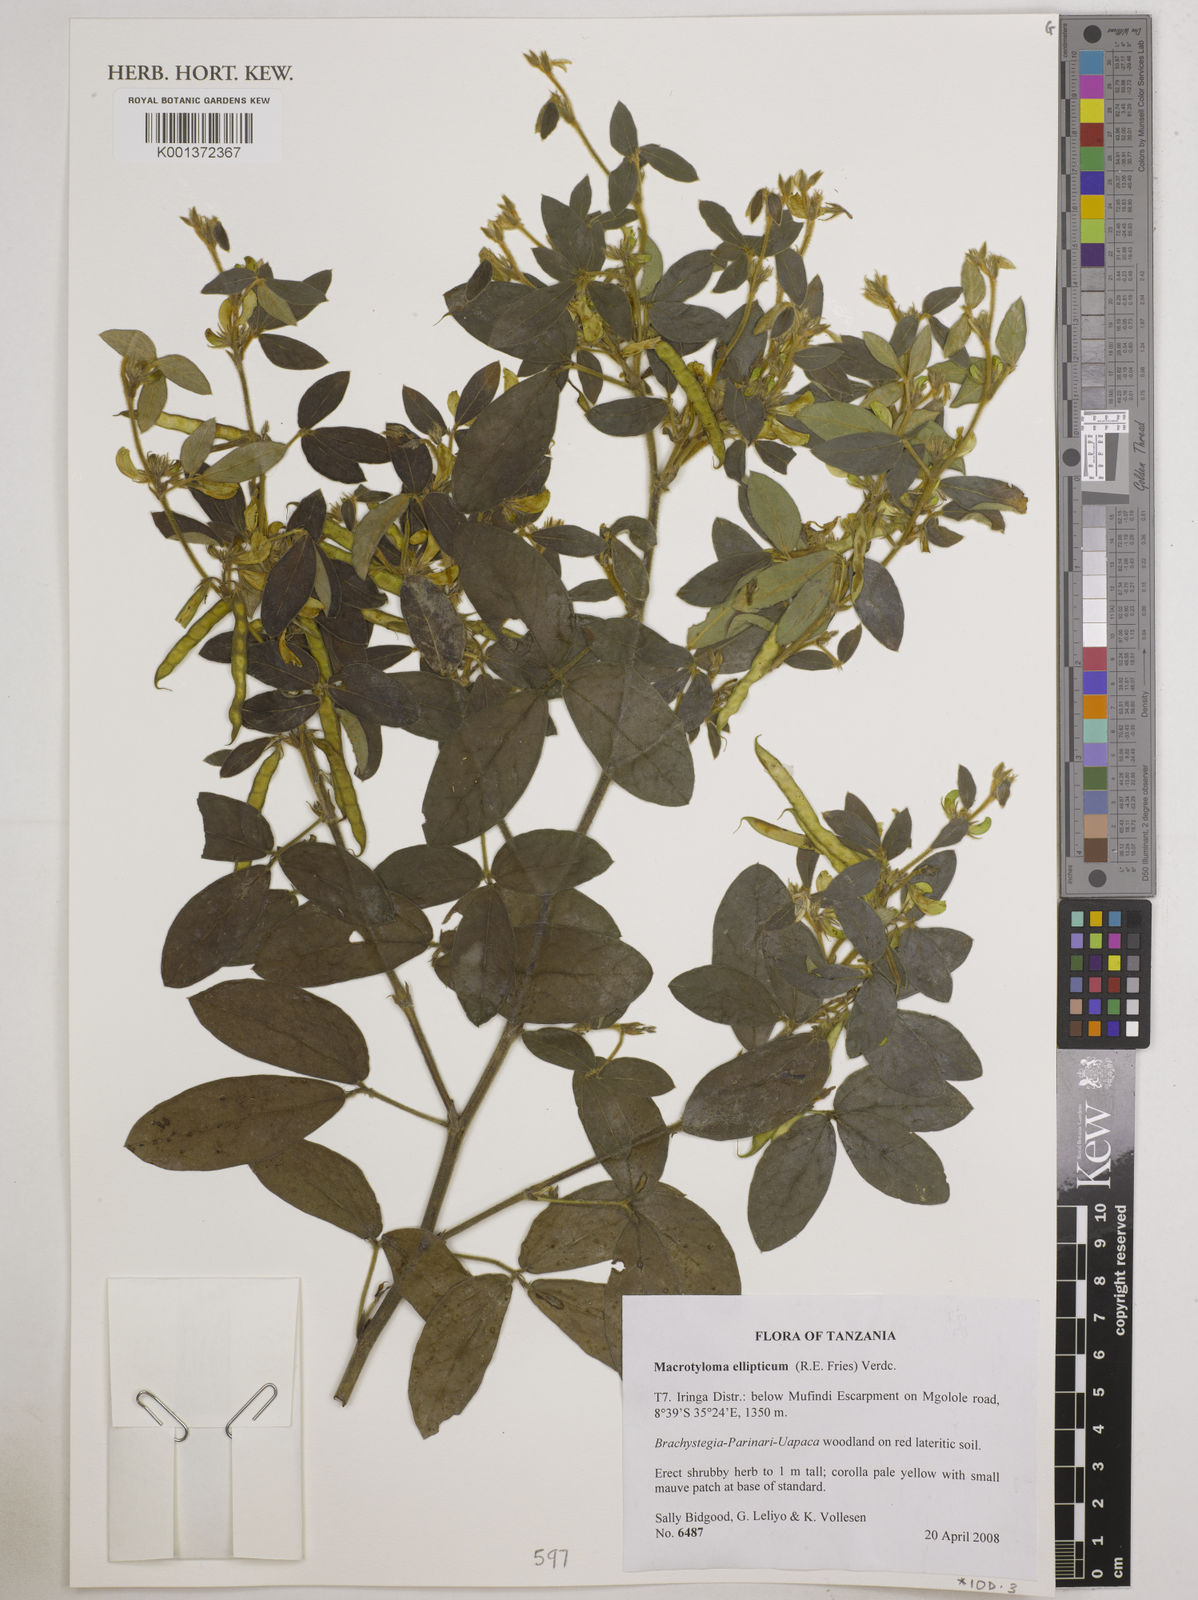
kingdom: Plantae
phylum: Tracheophyta
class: Magnoliopsida
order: Fabales
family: Fabaceae
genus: Macrotyloma
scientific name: Macrotyloma ellipticum
